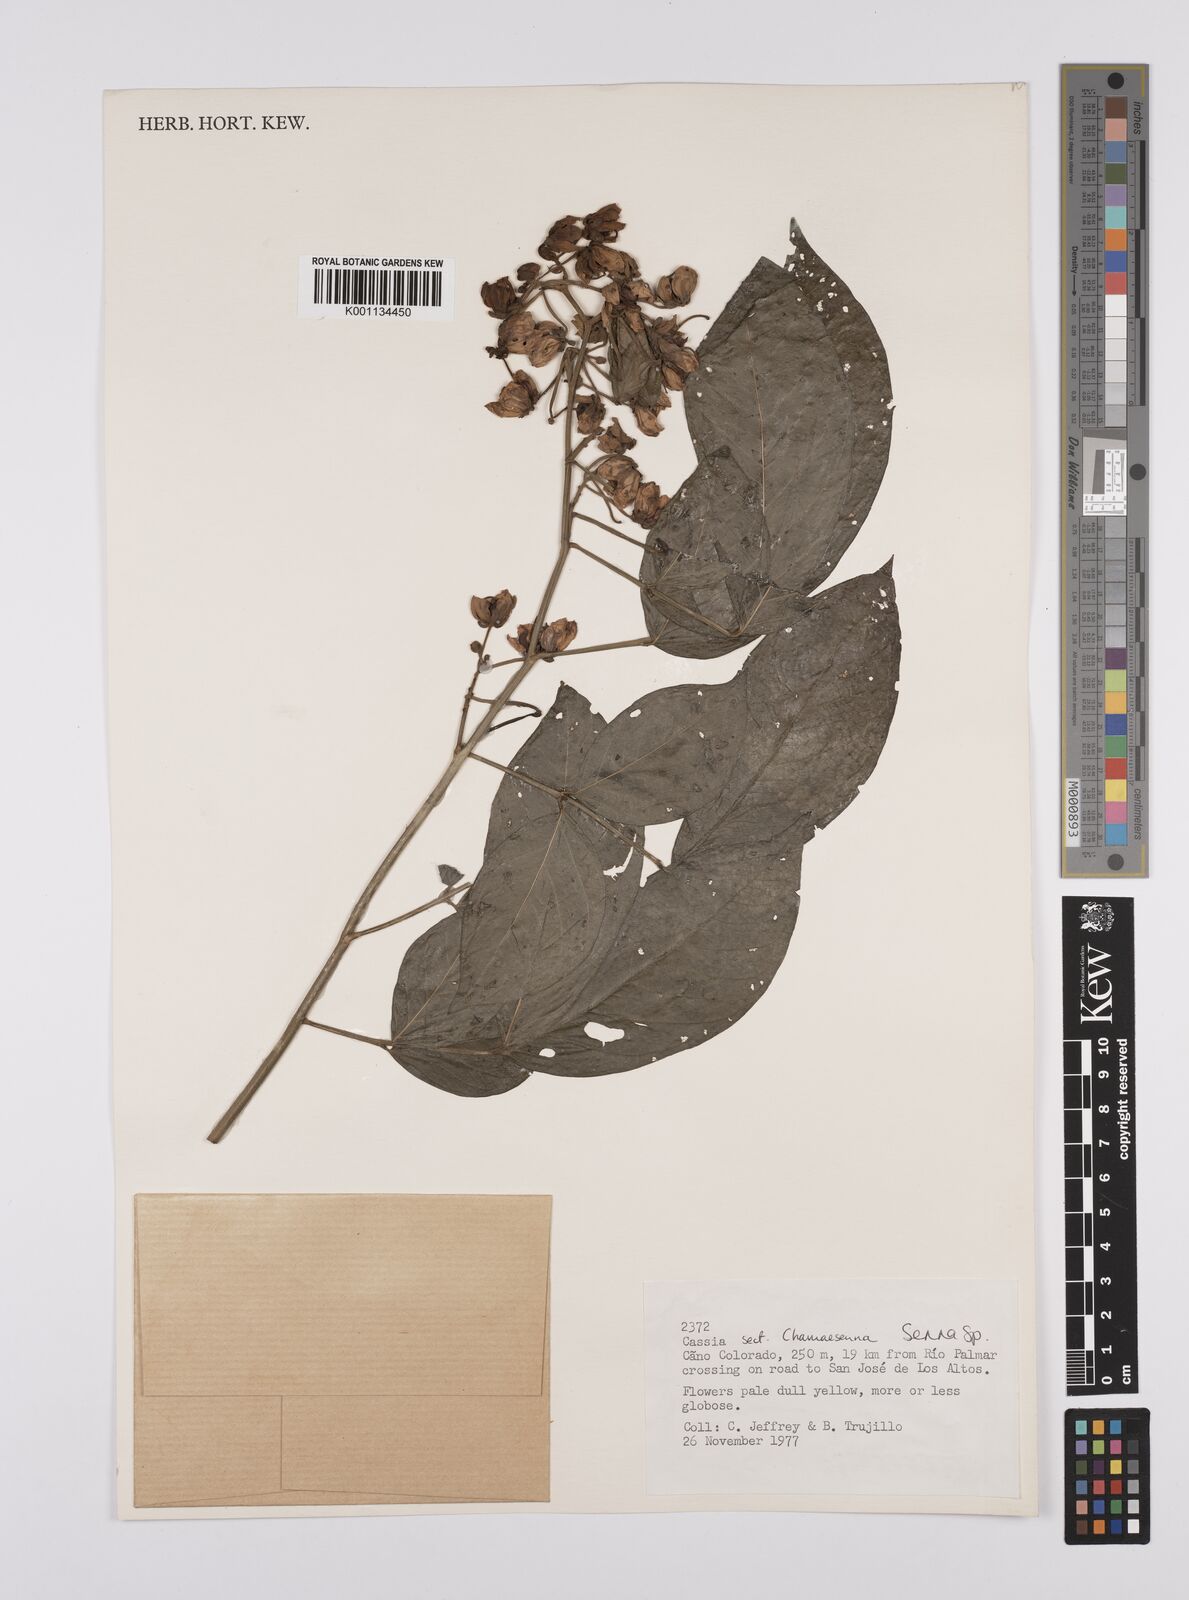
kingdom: Plantae
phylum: Tracheophyta
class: Magnoliopsida
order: Fabales
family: Fabaceae
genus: Senna
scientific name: Senna
